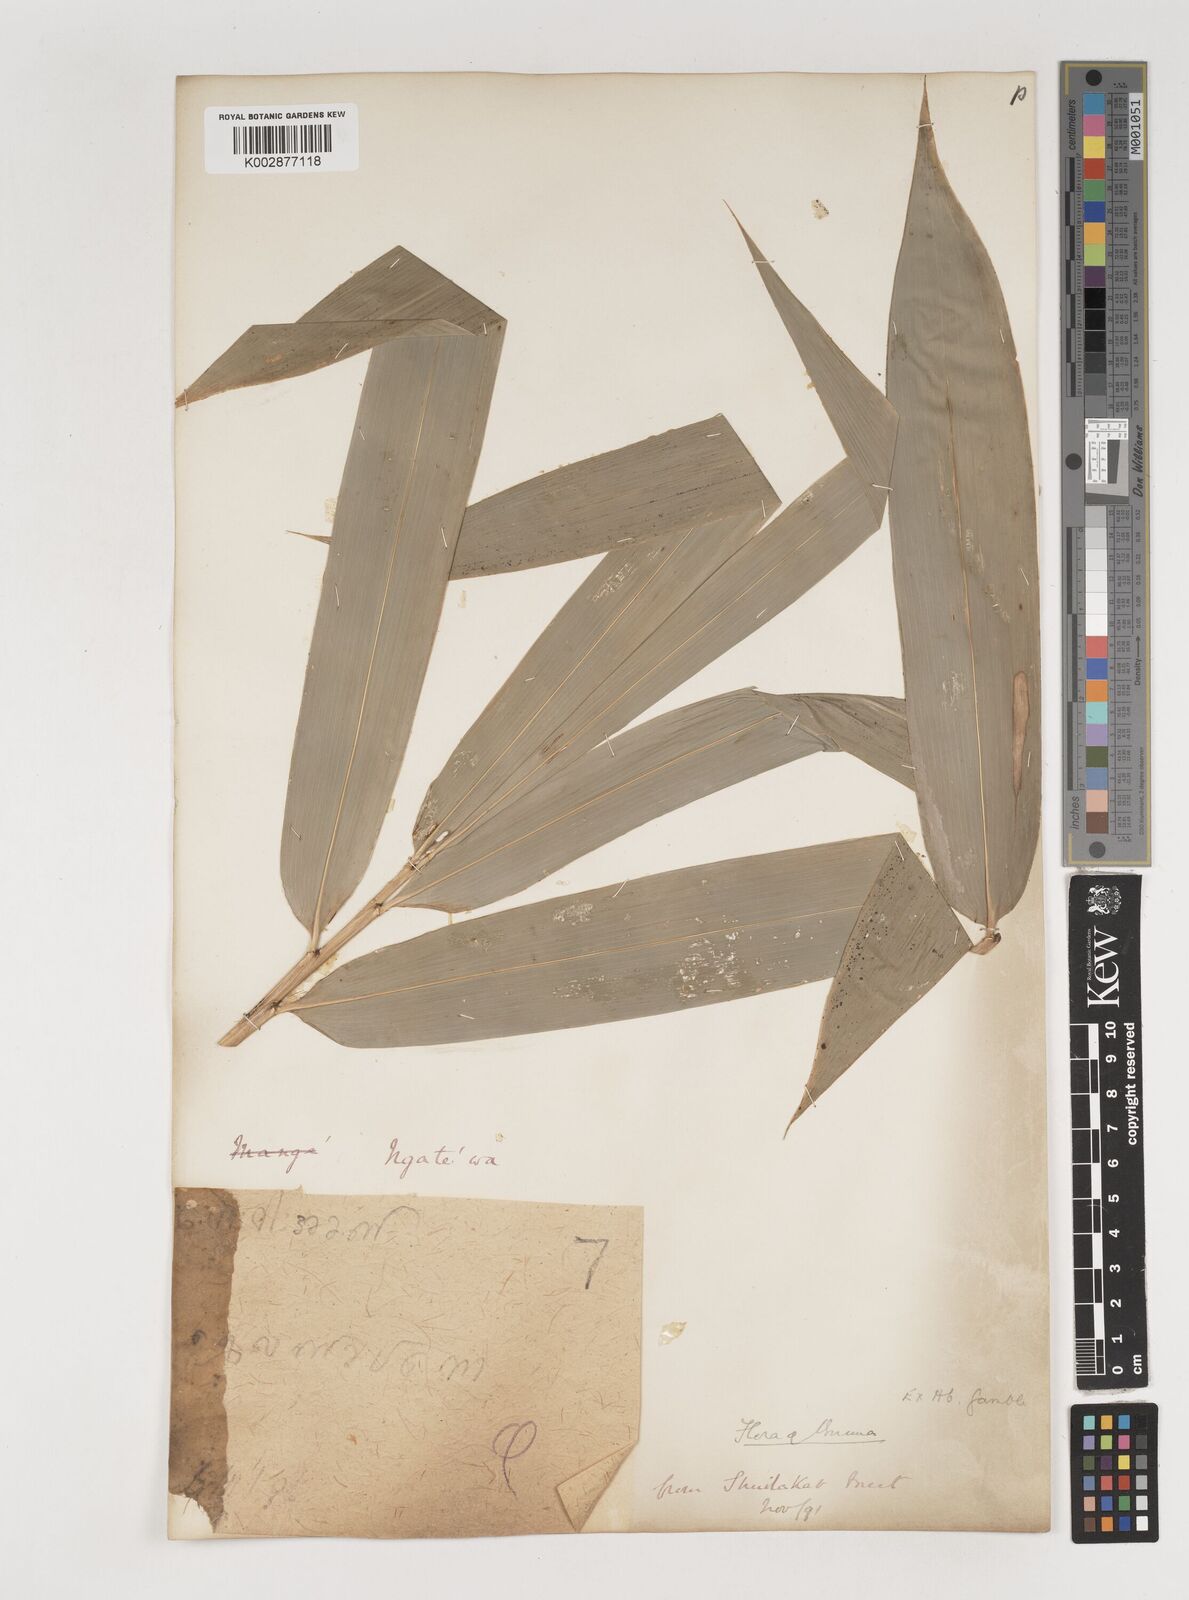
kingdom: Plantae
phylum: Tracheophyta
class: Liliopsida
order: Poales
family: Poaceae
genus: Bambusa
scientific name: Bambusa
